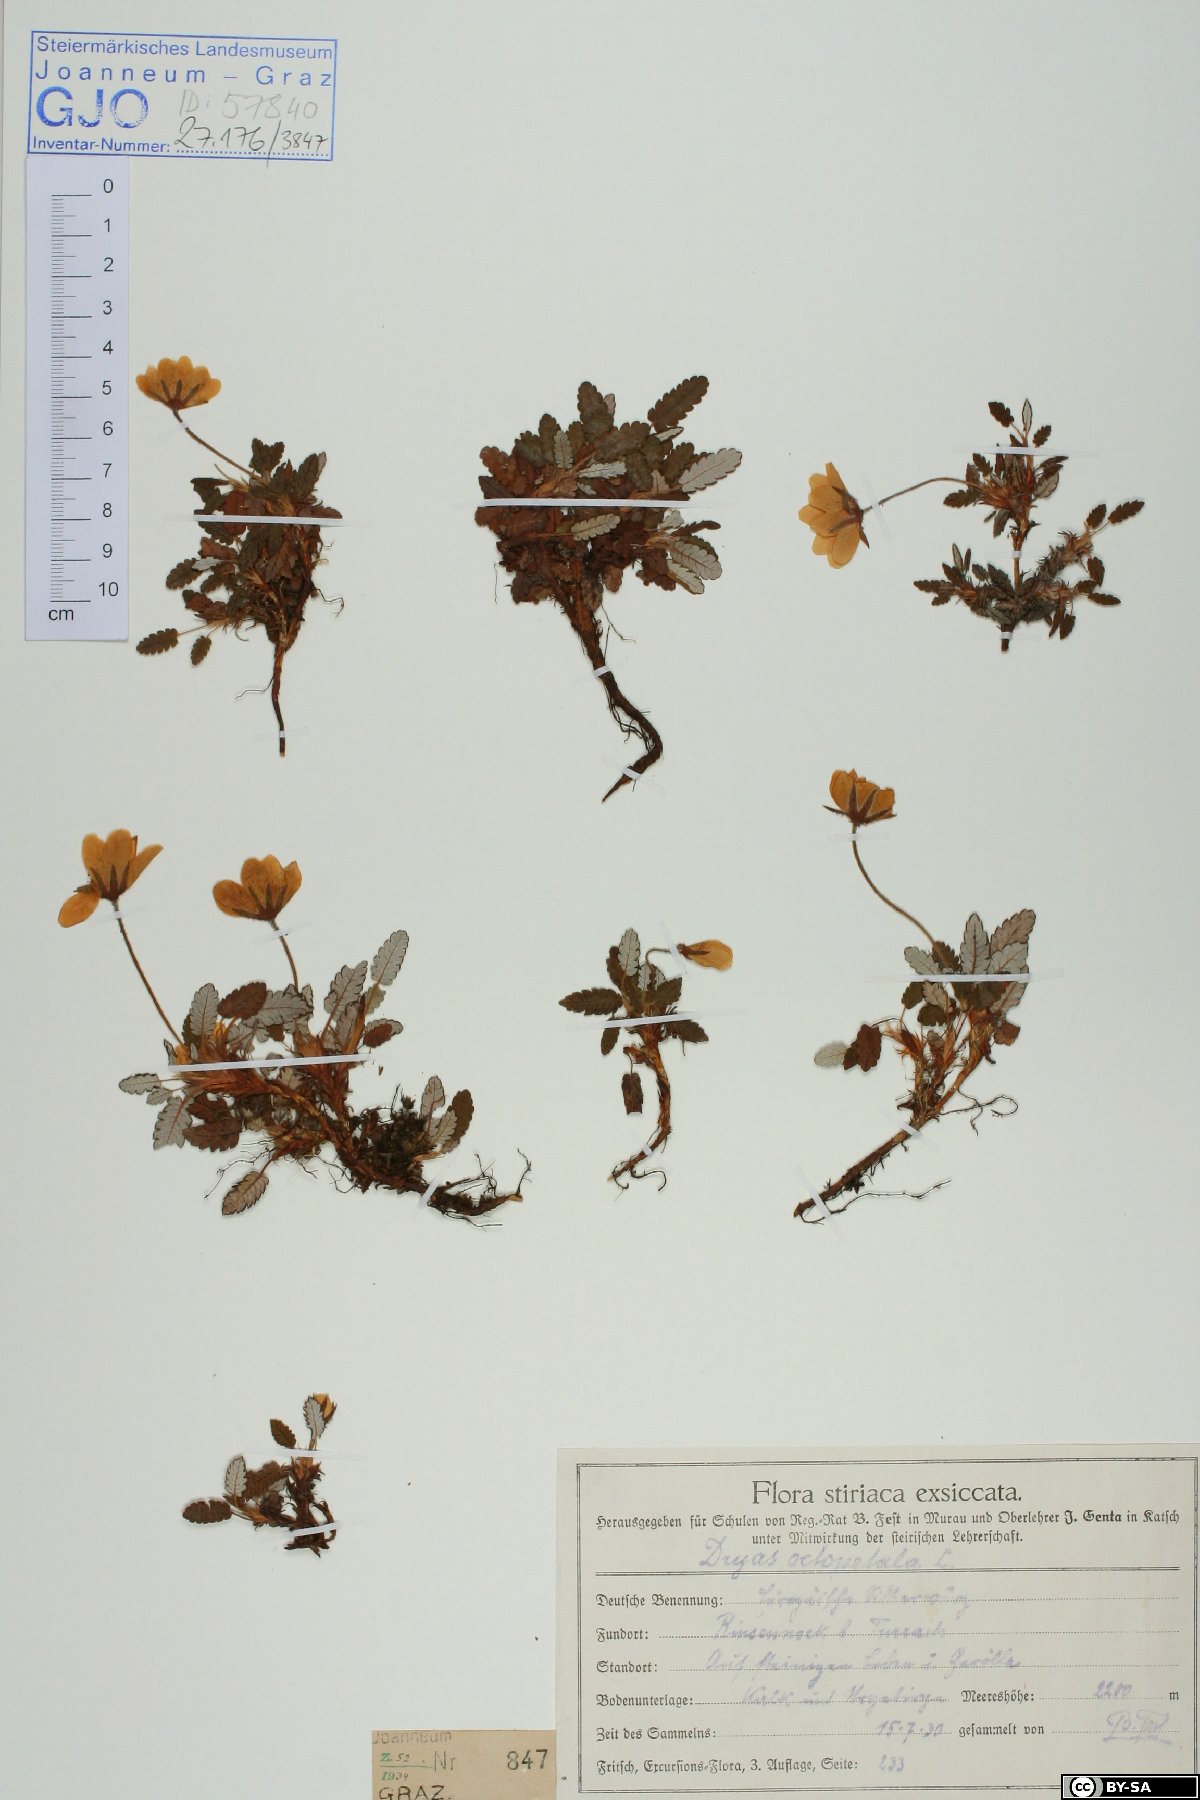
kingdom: Plantae
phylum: Tracheophyta
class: Magnoliopsida
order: Rosales
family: Rosaceae
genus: Dryas
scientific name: Dryas octopetala
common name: Eight-petal mountain-avens
